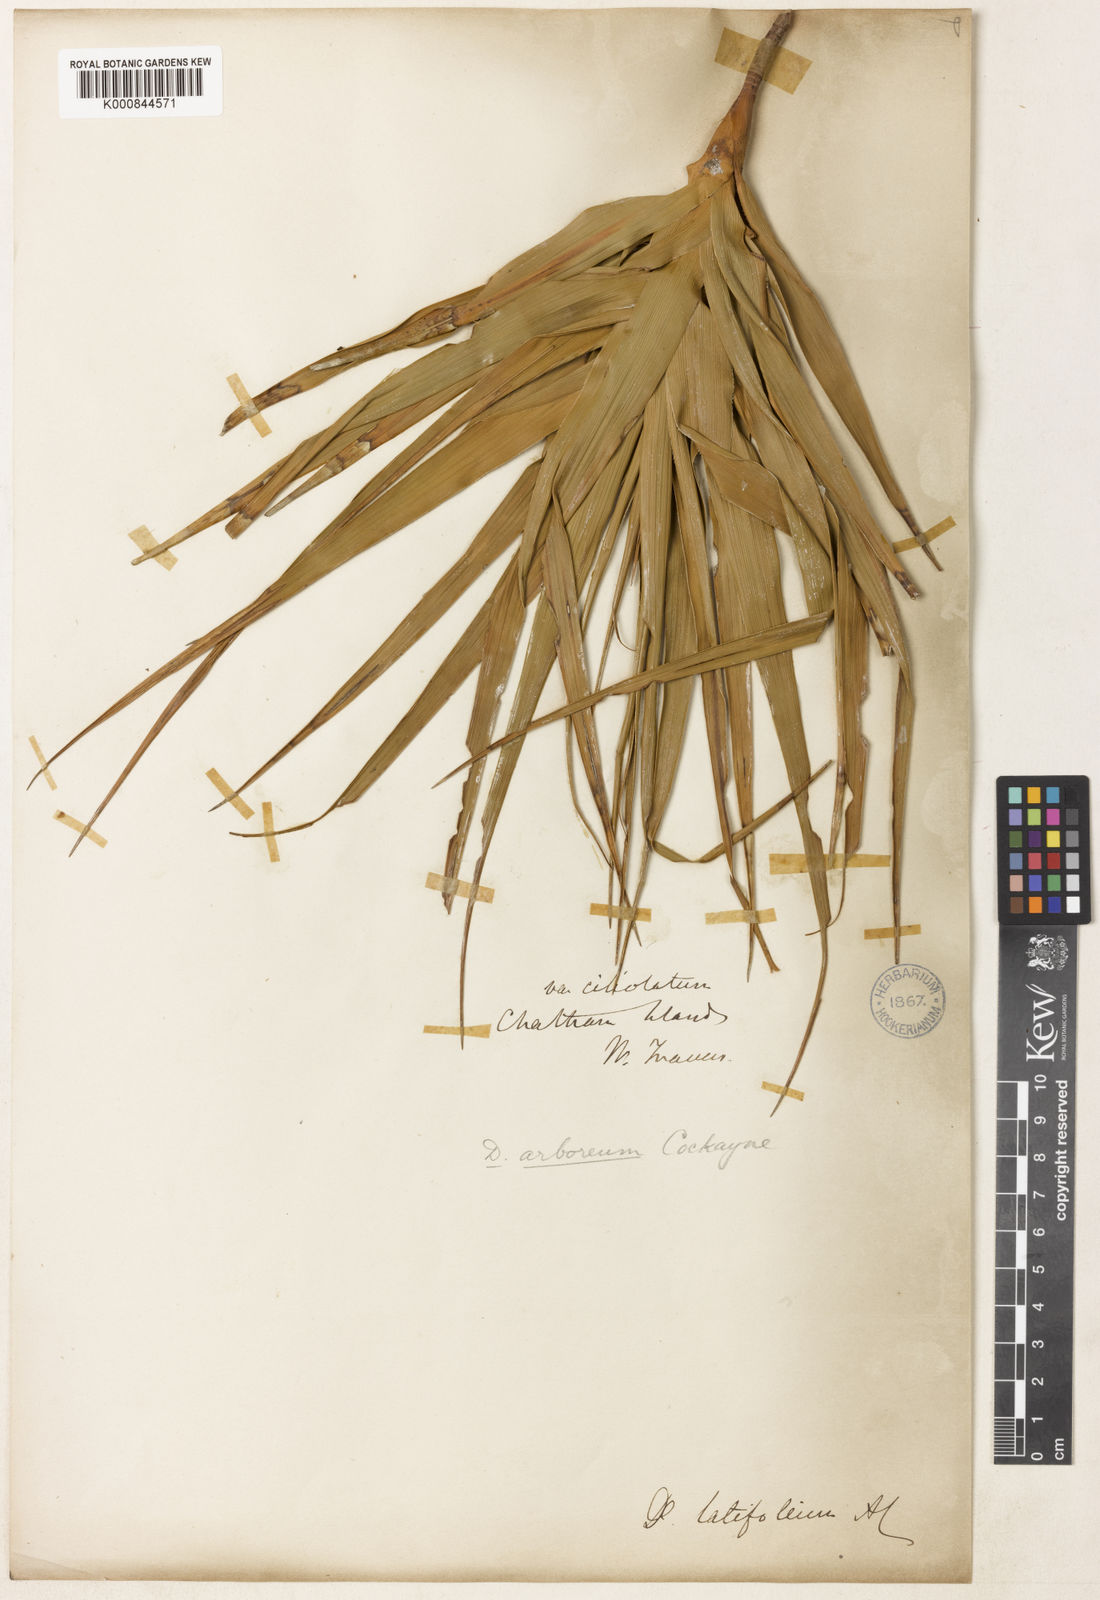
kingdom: Plantae
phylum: Tracheophyta
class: Magnoliopsida
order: Ericales
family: Ericaceae
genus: Dracophyllum
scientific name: Dracophyllum arboreum
